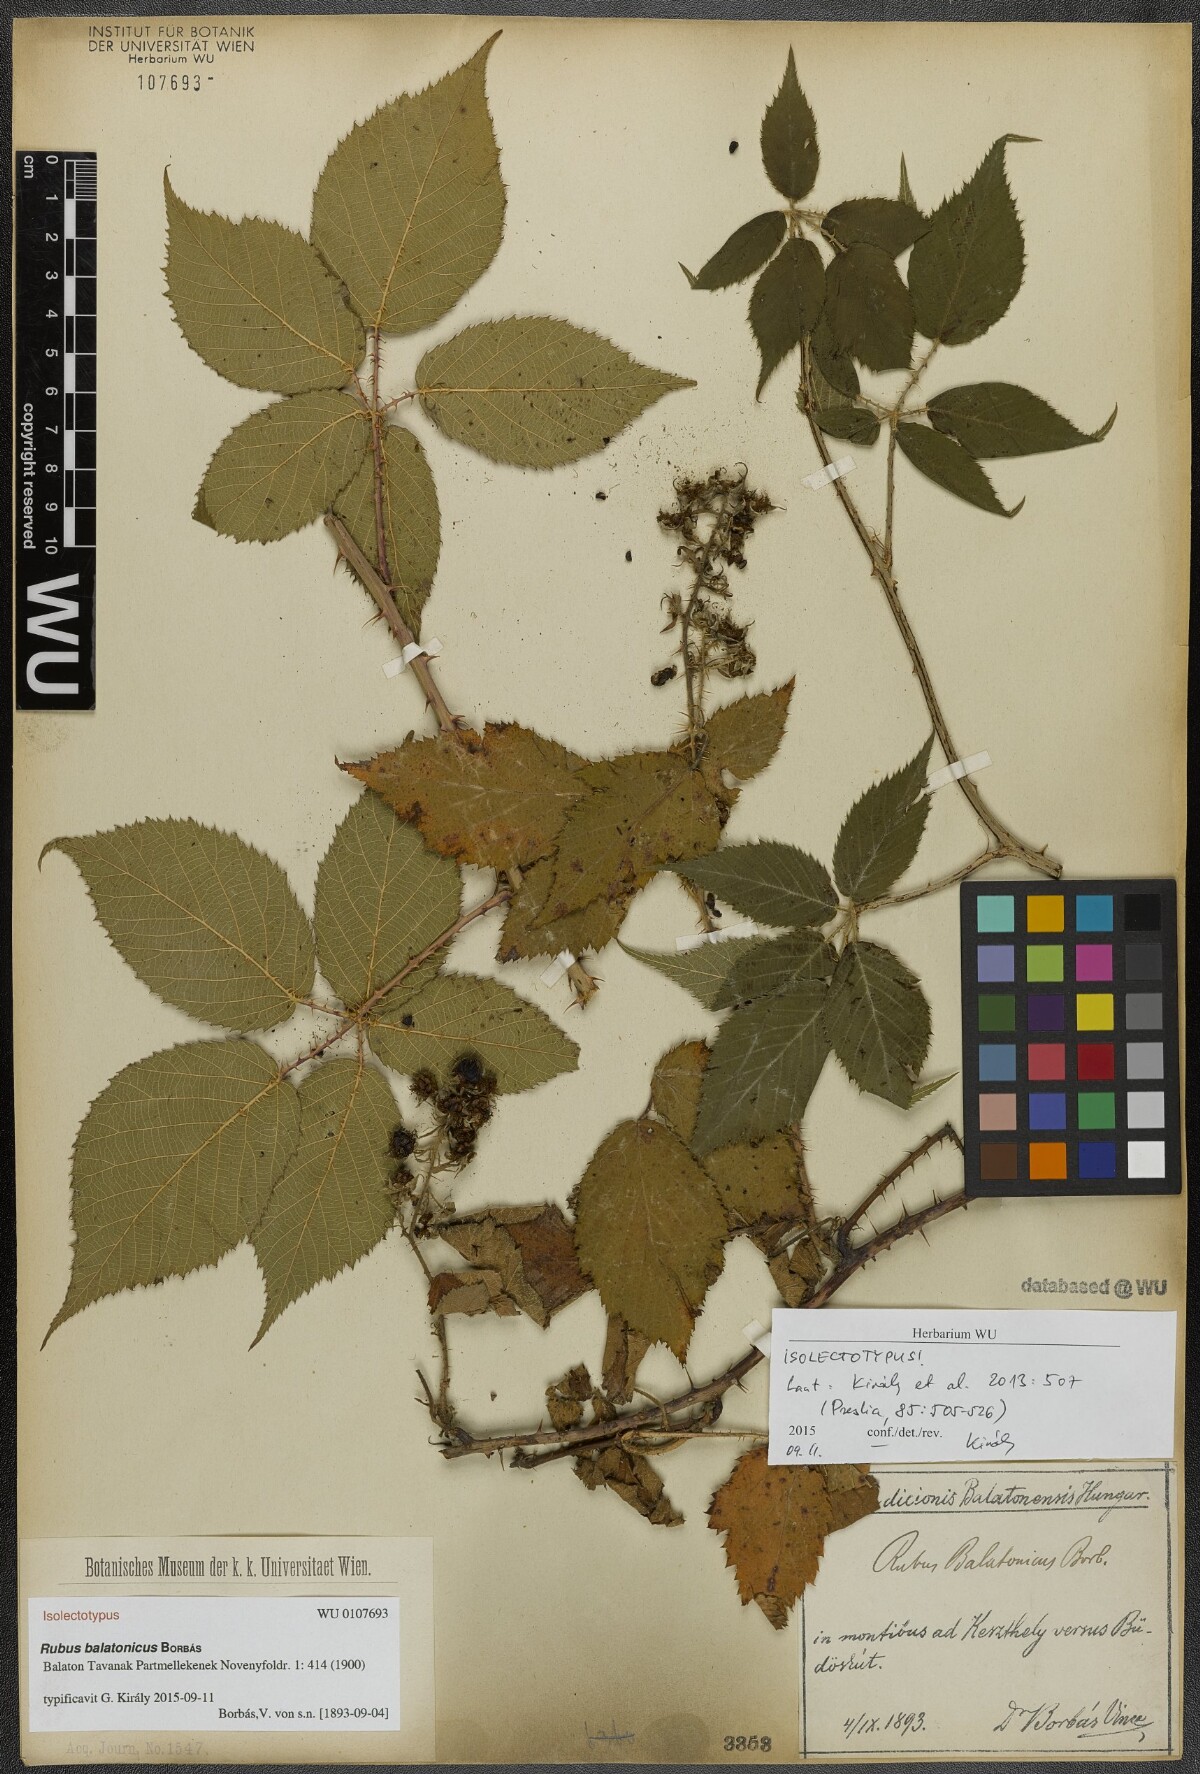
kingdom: Plantae
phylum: Tracheophyta
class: Magnoliopsida
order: Rosales
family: Rosaceae
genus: Rubus
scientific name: Rubus balatonicus
